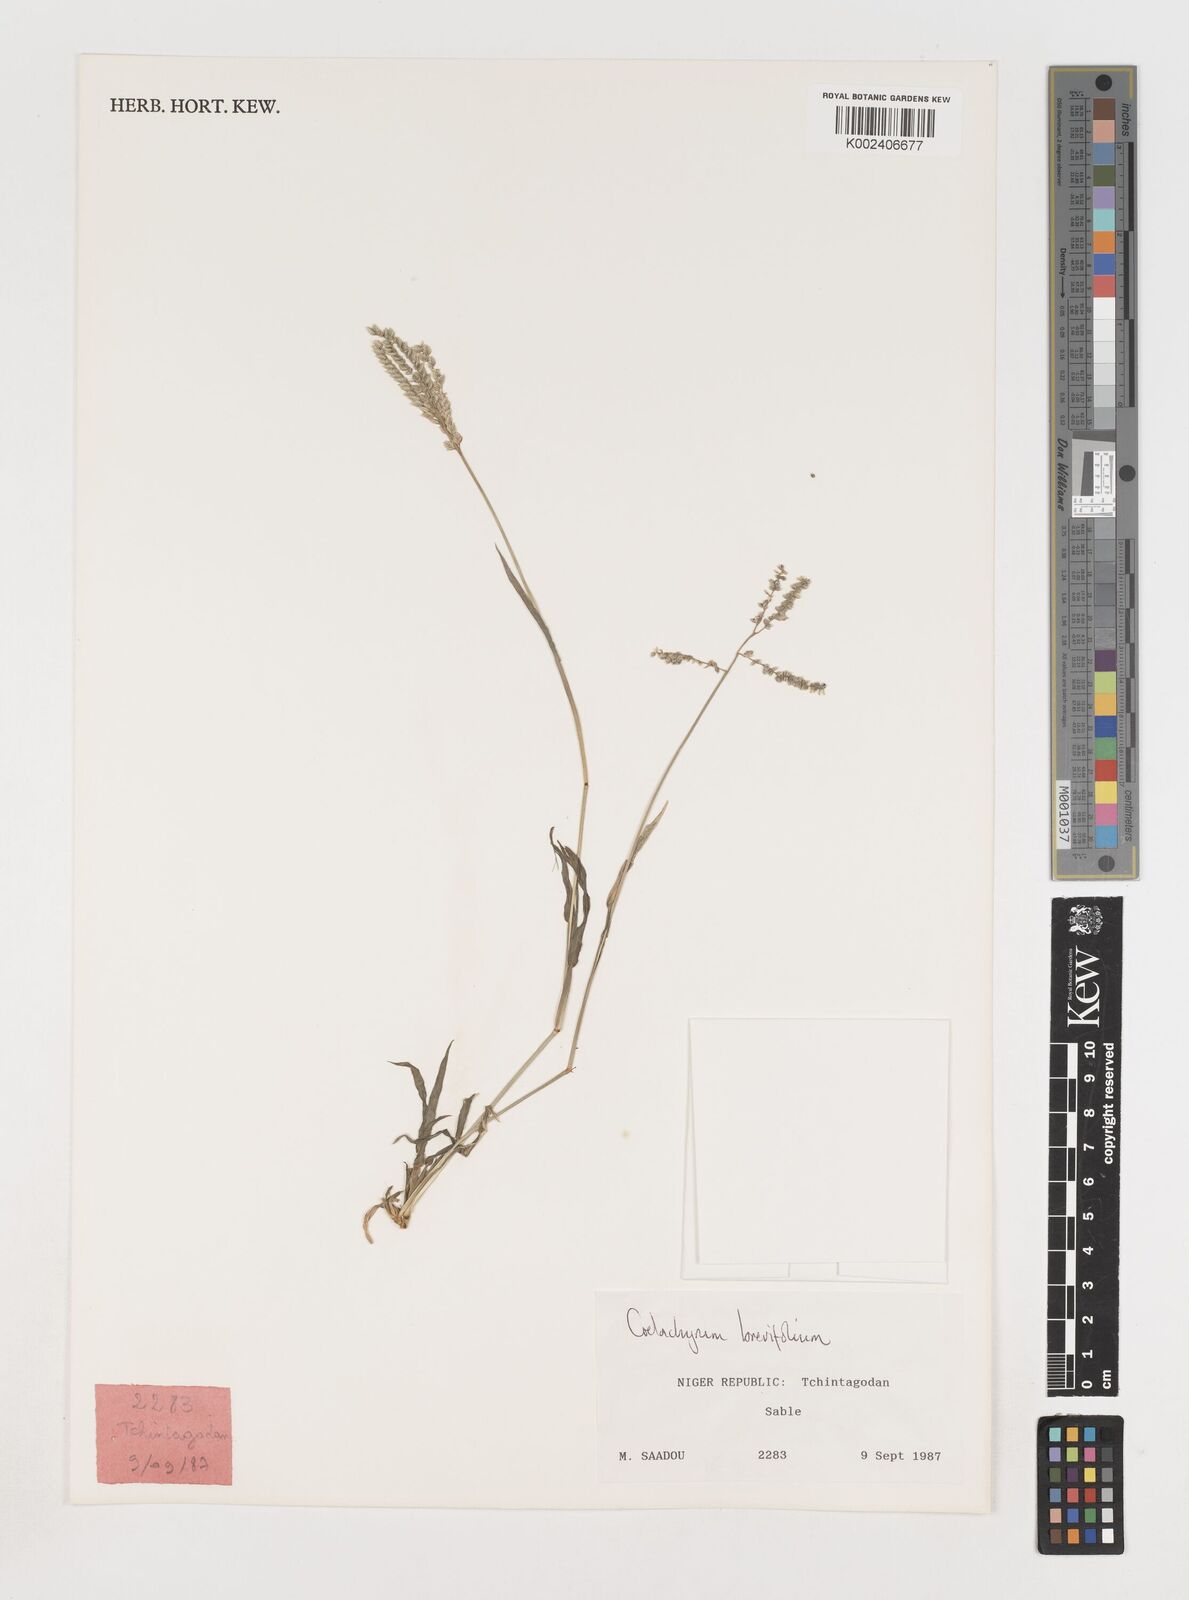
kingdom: Plantae
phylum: Tracheophyta
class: Liliopsida
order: Poales
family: Poaceae
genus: Coelachyrum
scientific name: Coelachyrum brevifolium
